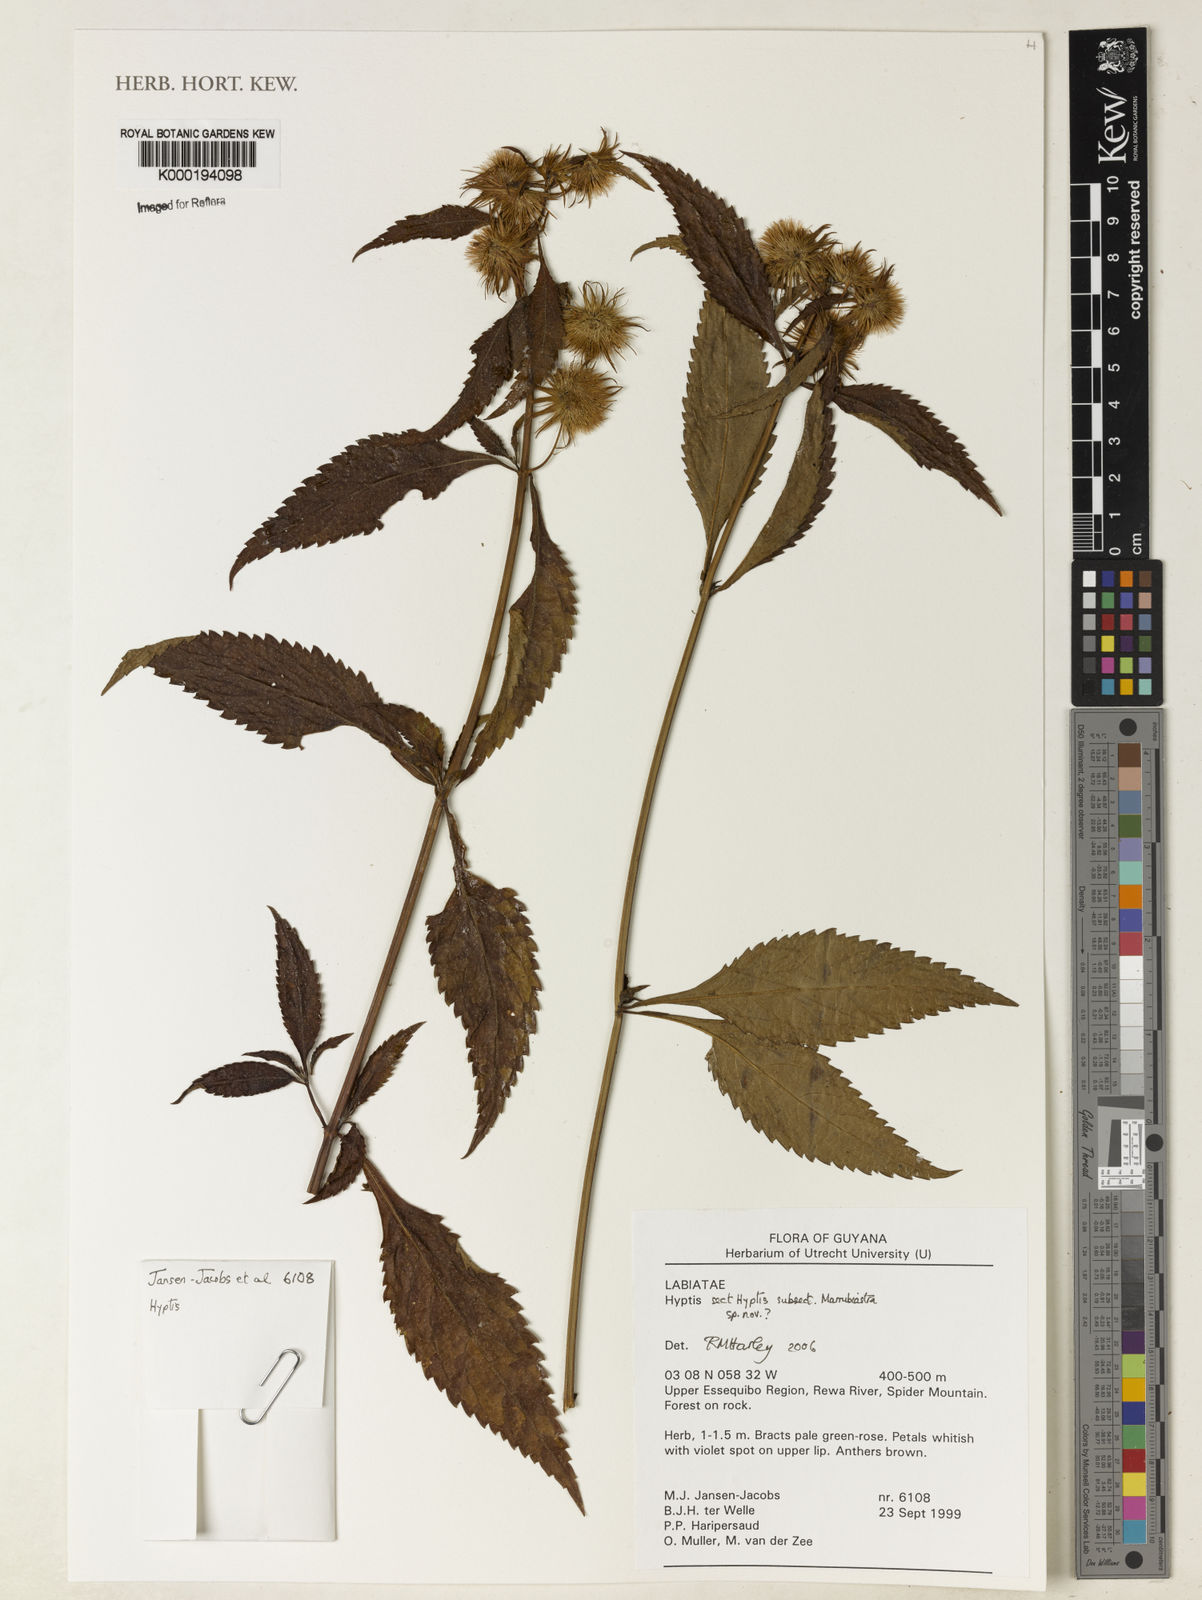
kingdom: Plantae
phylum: Tracheophyta
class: Magnoliopsida
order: Lamiales
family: Lamiaceae
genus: Hyptis
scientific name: Hyptis
